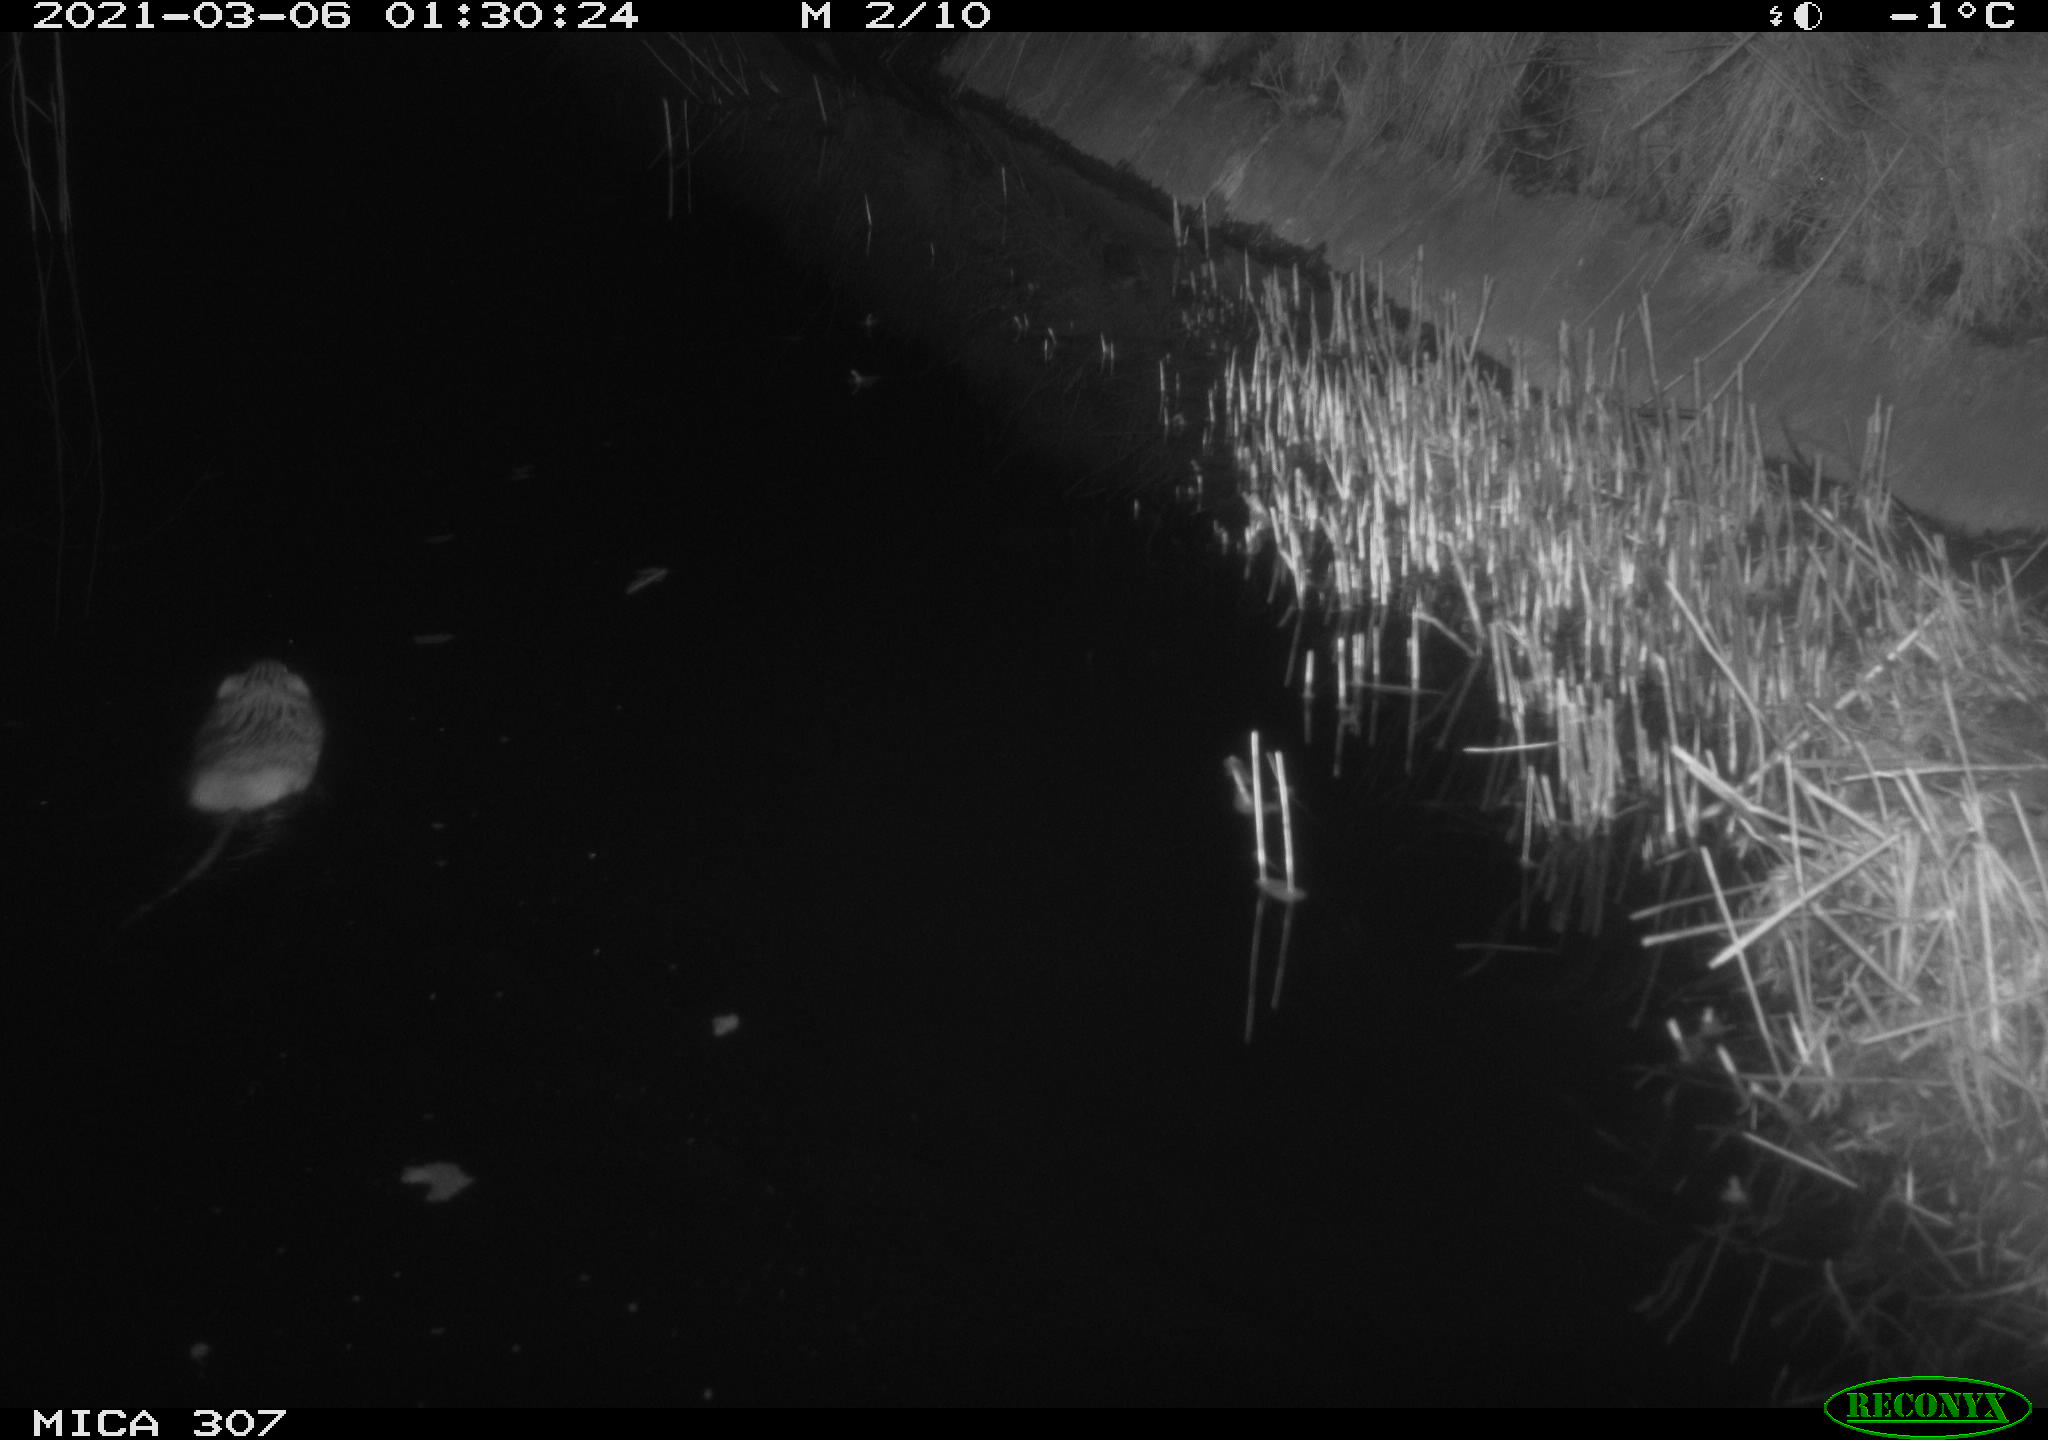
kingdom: Animalia
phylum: Chordata
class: Mammalia
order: Rodentia
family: Cricetidae
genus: Ondatra
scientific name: Ondatra zibethicus
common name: Muskrat
